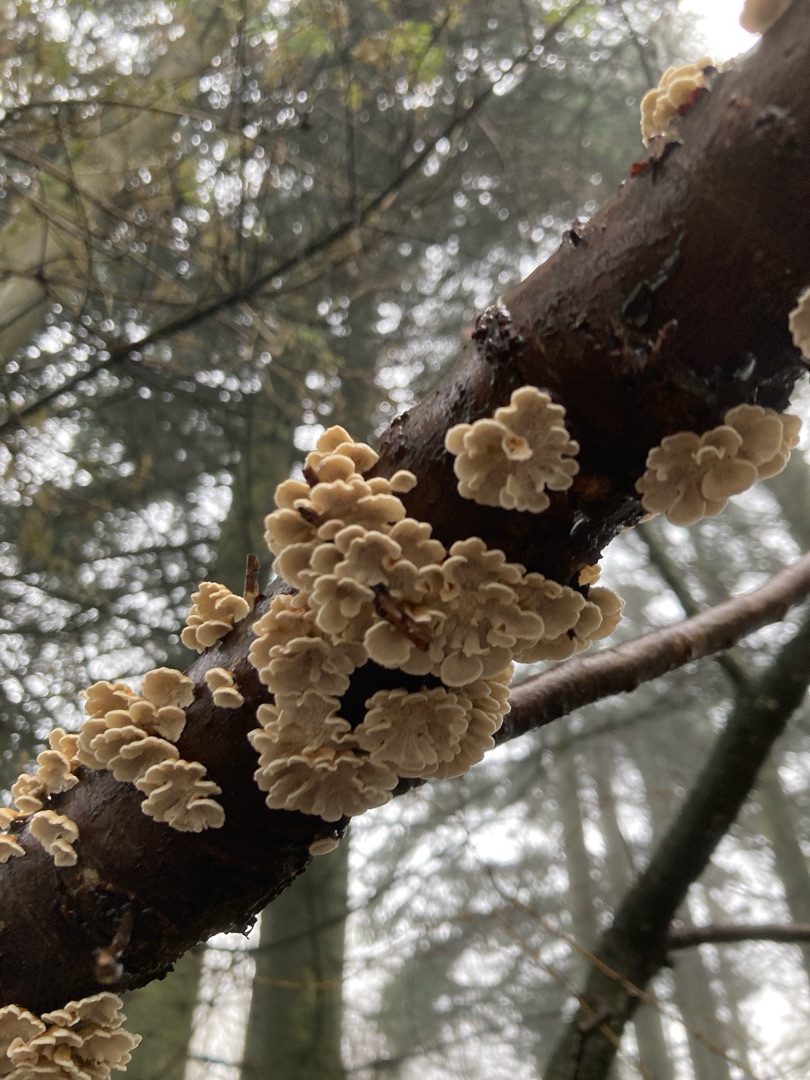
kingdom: Fungi
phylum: Basidiomycota
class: Agaricomycetes
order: Amylocorticiales
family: Amylocorticiaceae
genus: Plicaturopsis
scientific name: Plicaturopsis crispa
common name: Krusblad
